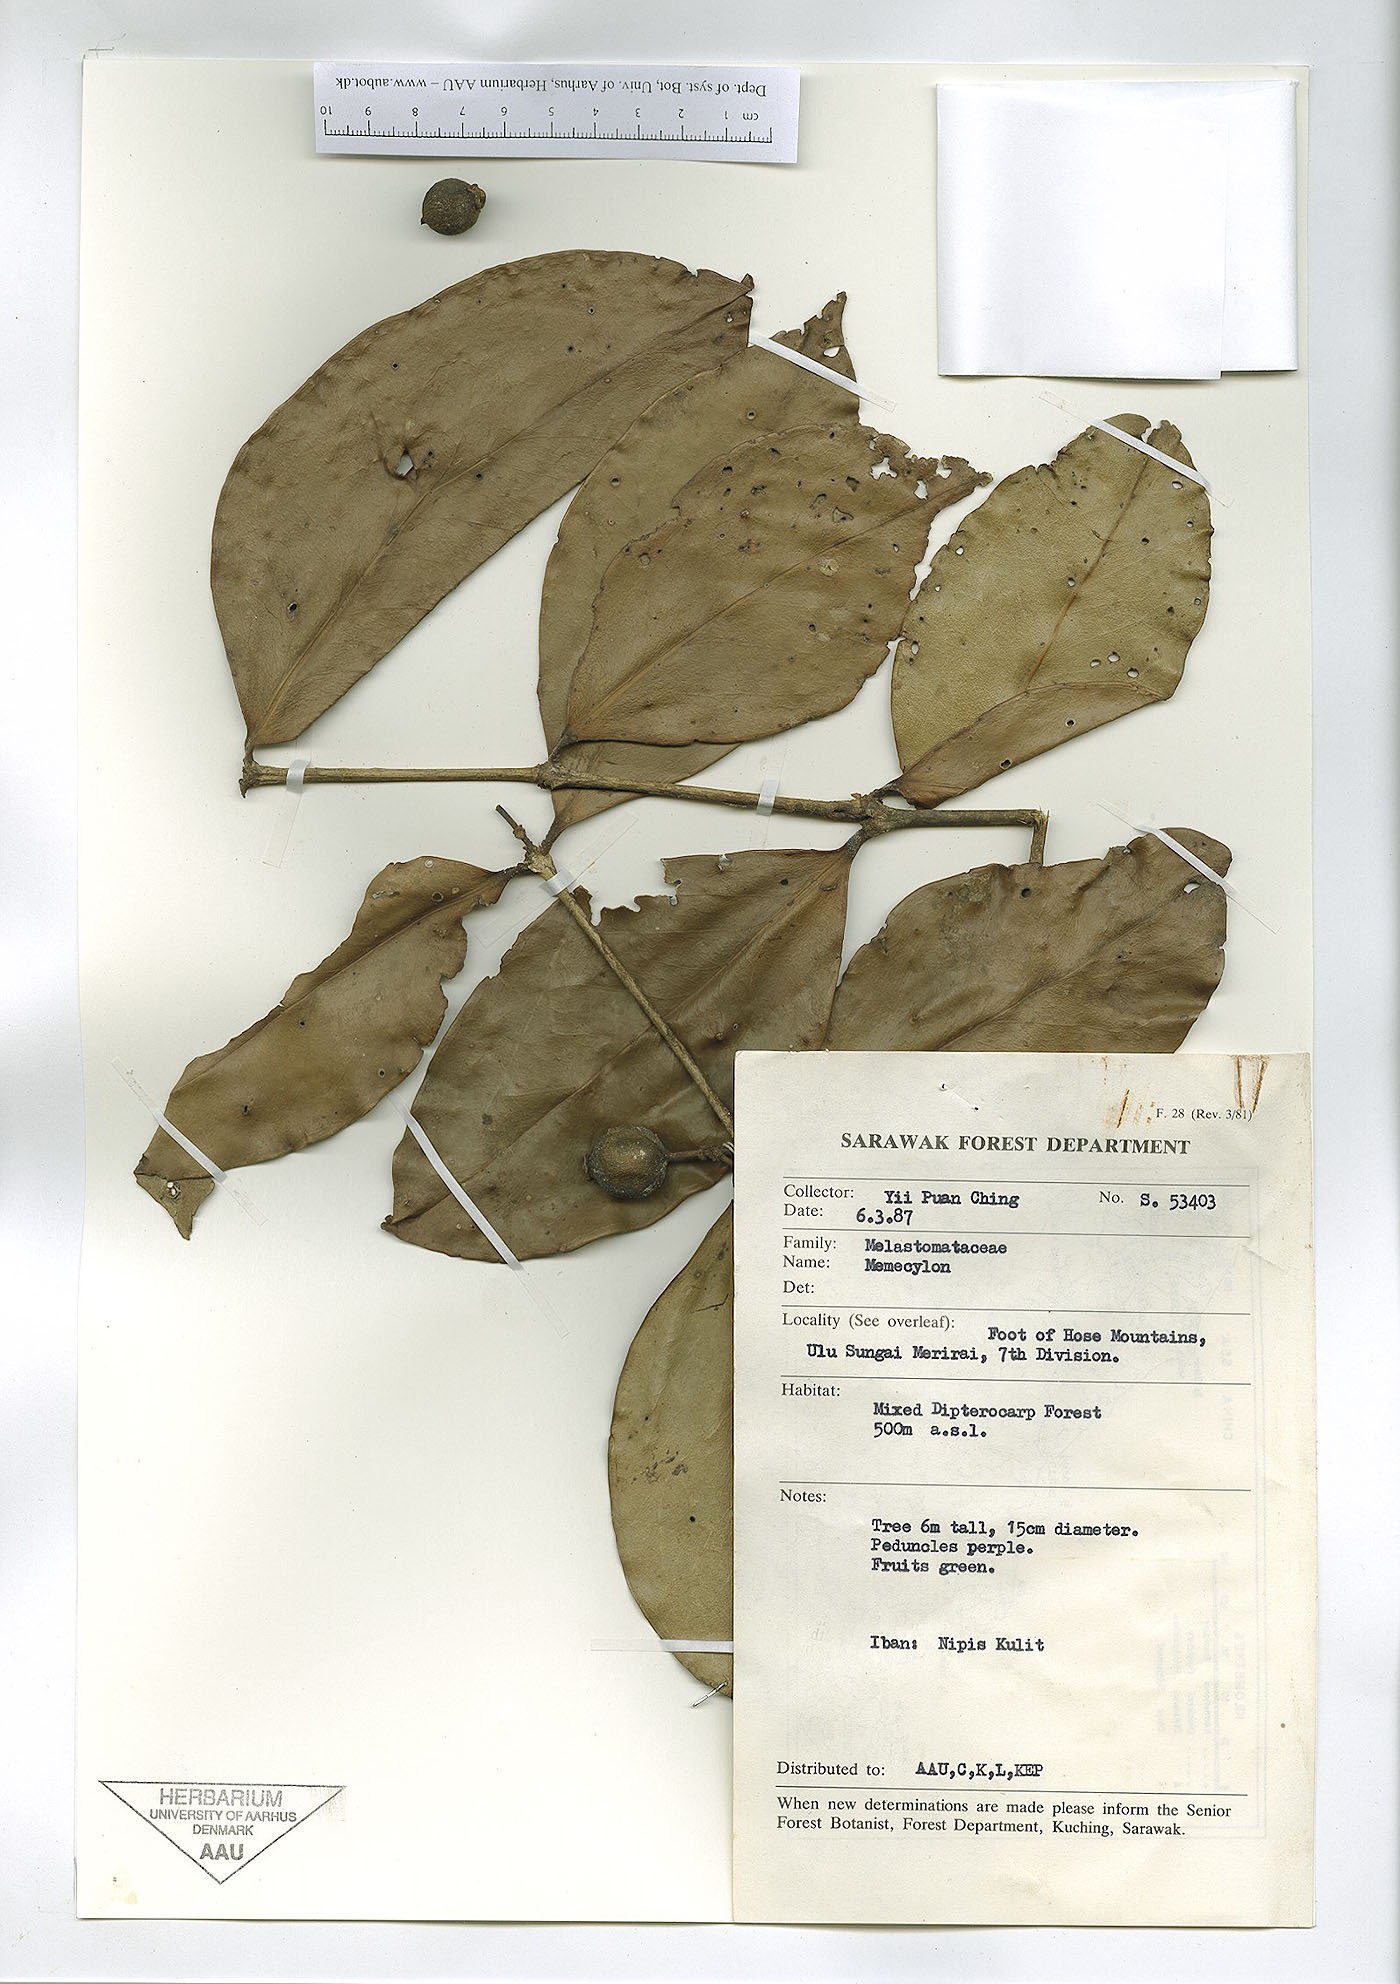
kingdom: Plantae
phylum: Tracheophyta
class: Magnoliopsida
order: Myrtales
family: Melastomataceae
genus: Memecylon
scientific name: Memecylon
